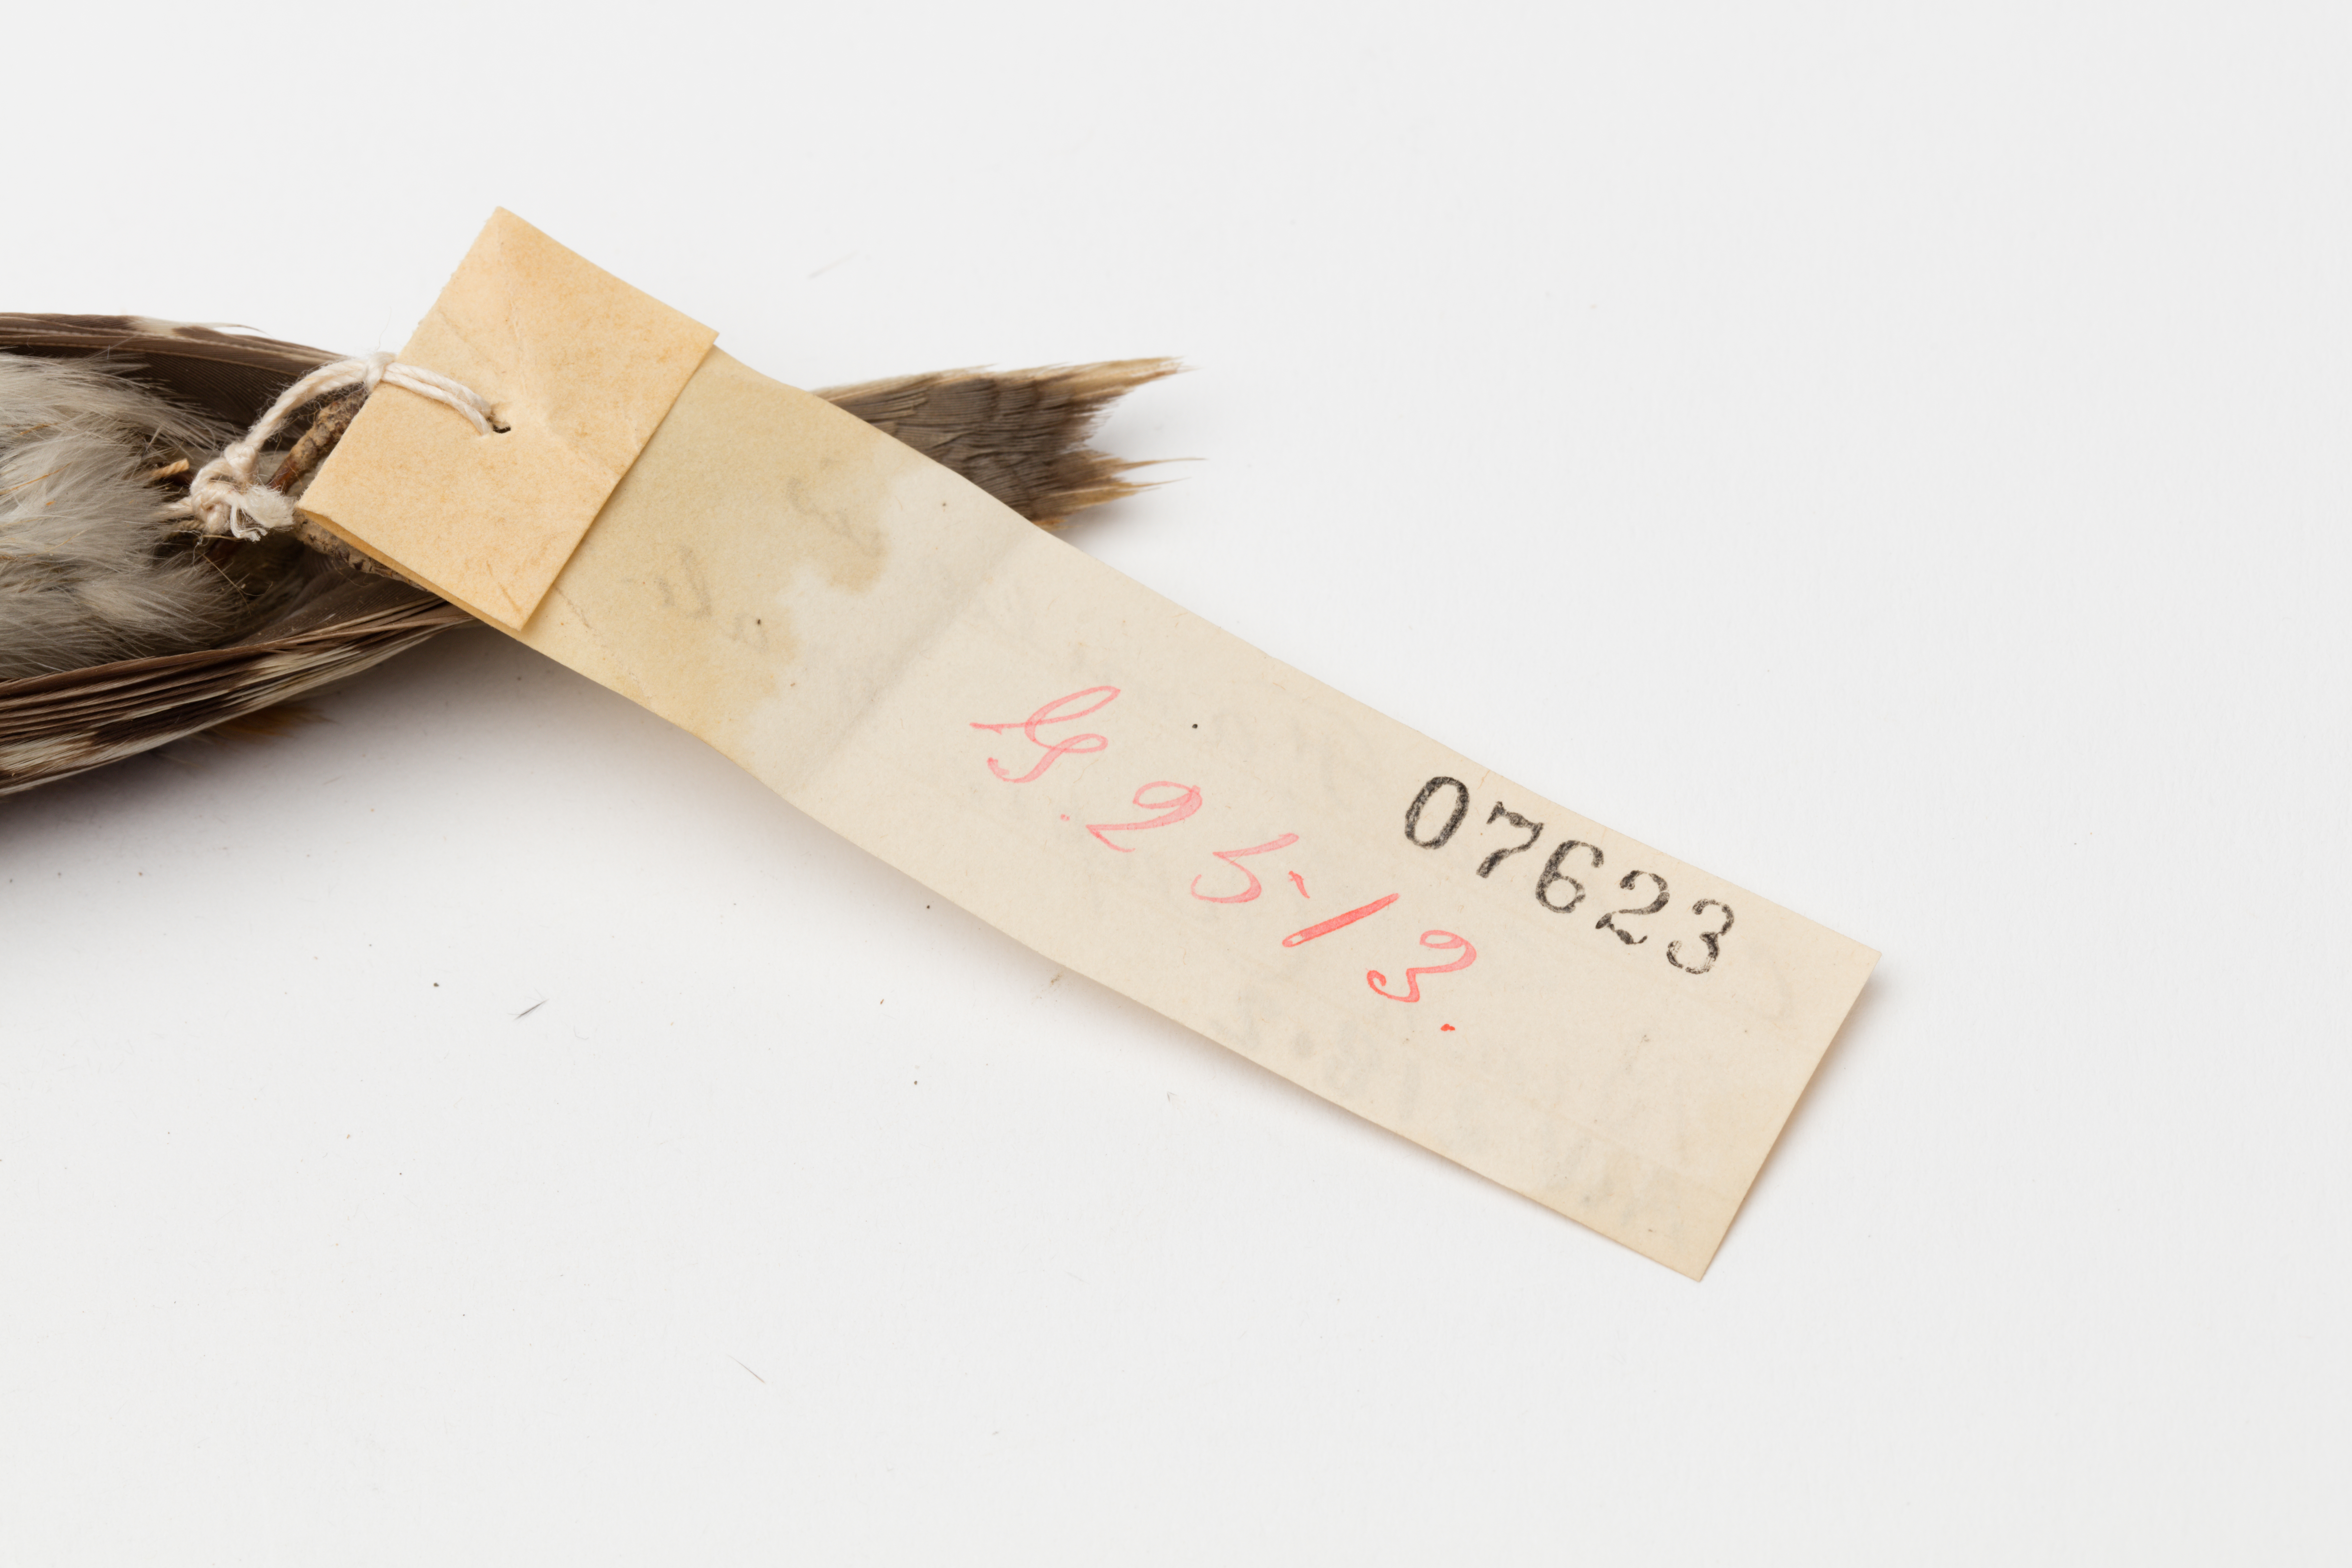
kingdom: Animalia
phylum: Chordata
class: Aves
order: Passeriformes
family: Certhiidae
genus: Certhia
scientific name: Certhia familiaris
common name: Eurasian treecreeper
